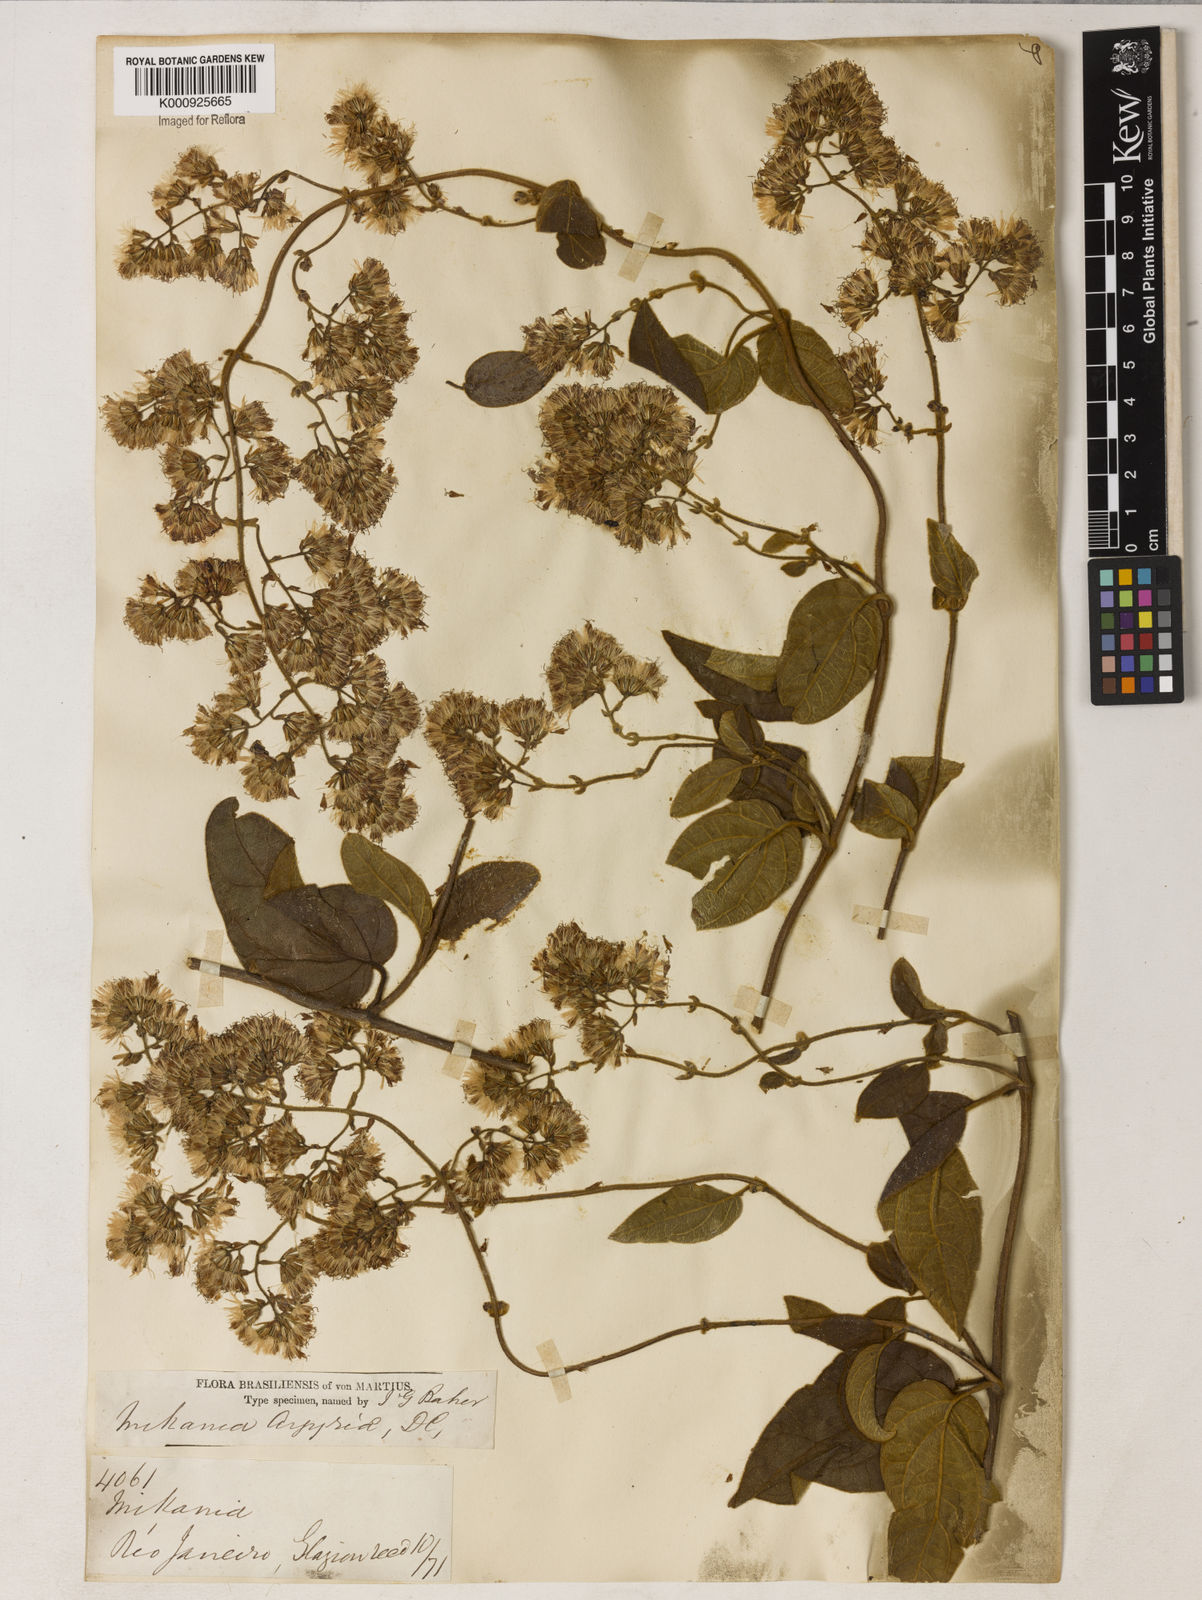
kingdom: Plantae
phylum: Tracheophyta
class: Magnoliopsida
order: Asterales
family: Asteraceae
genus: Mikania
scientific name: Mikania
